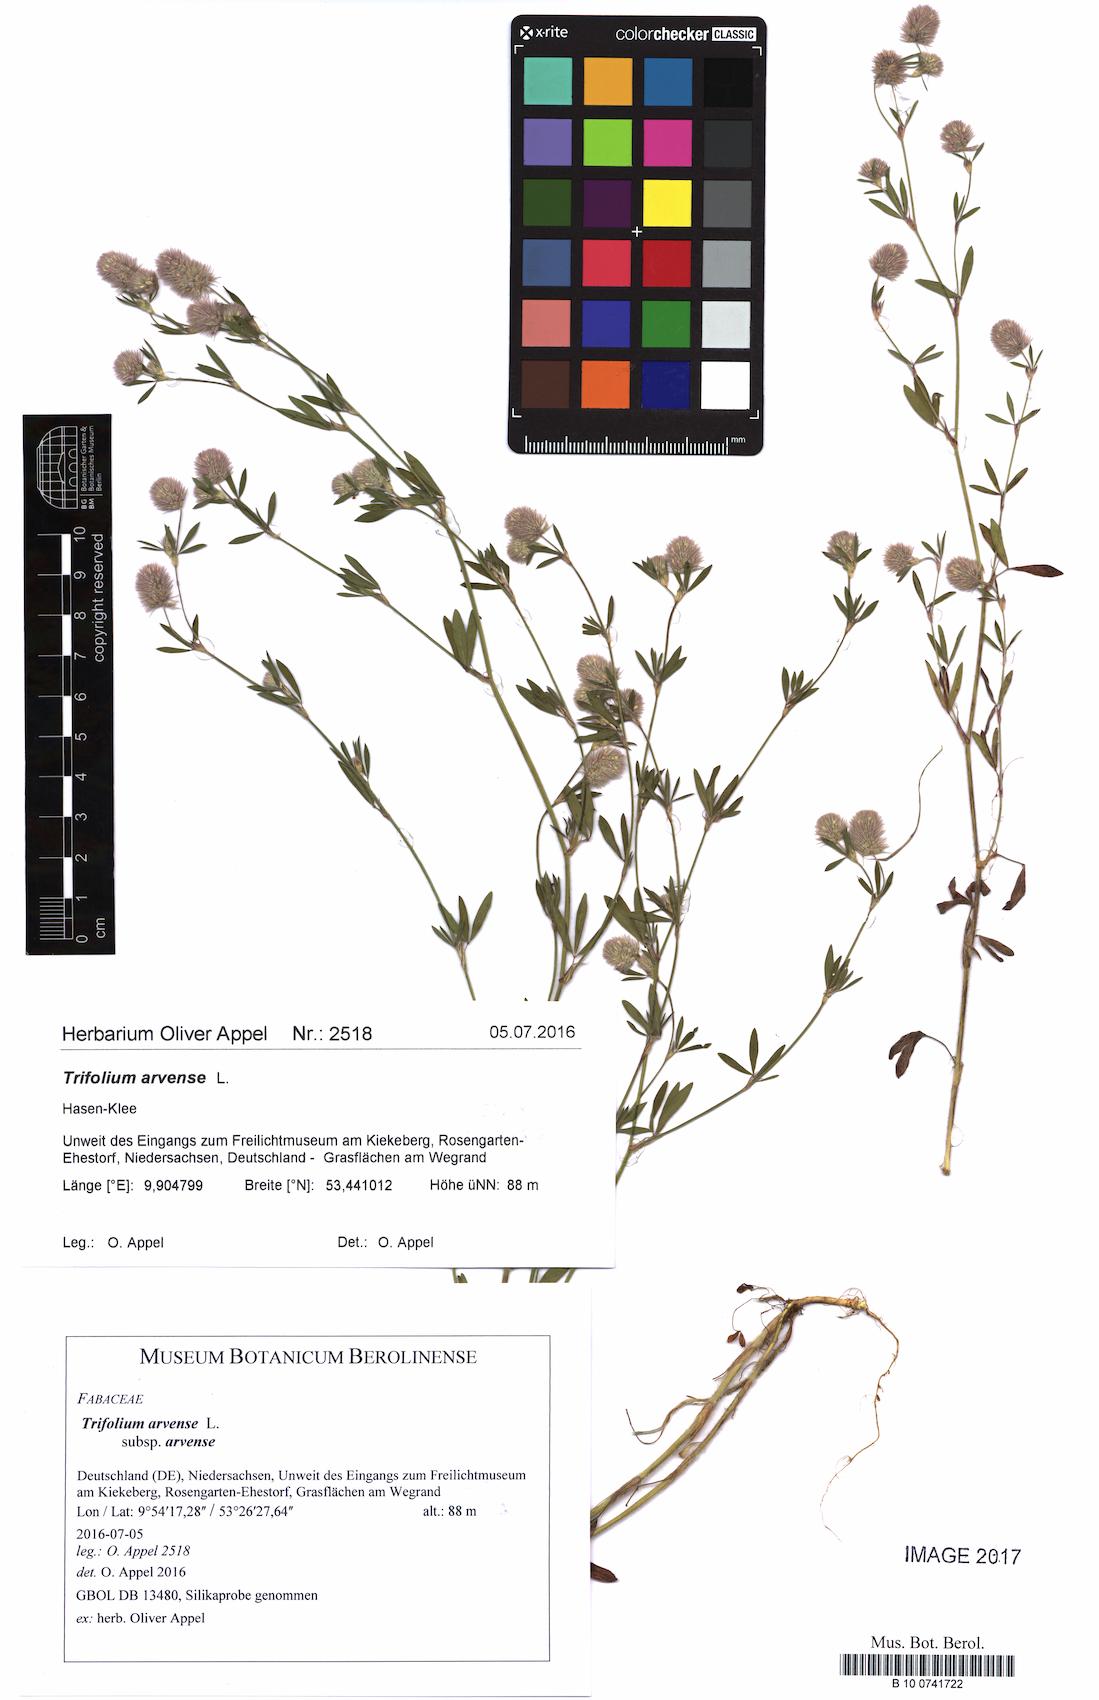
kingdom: Plantae
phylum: Tracheophyta
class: Magnoliopsida
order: Fabales
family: Fabaceae
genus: Trifolium
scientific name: Trifolium arvense
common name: Hare's-foot clover
